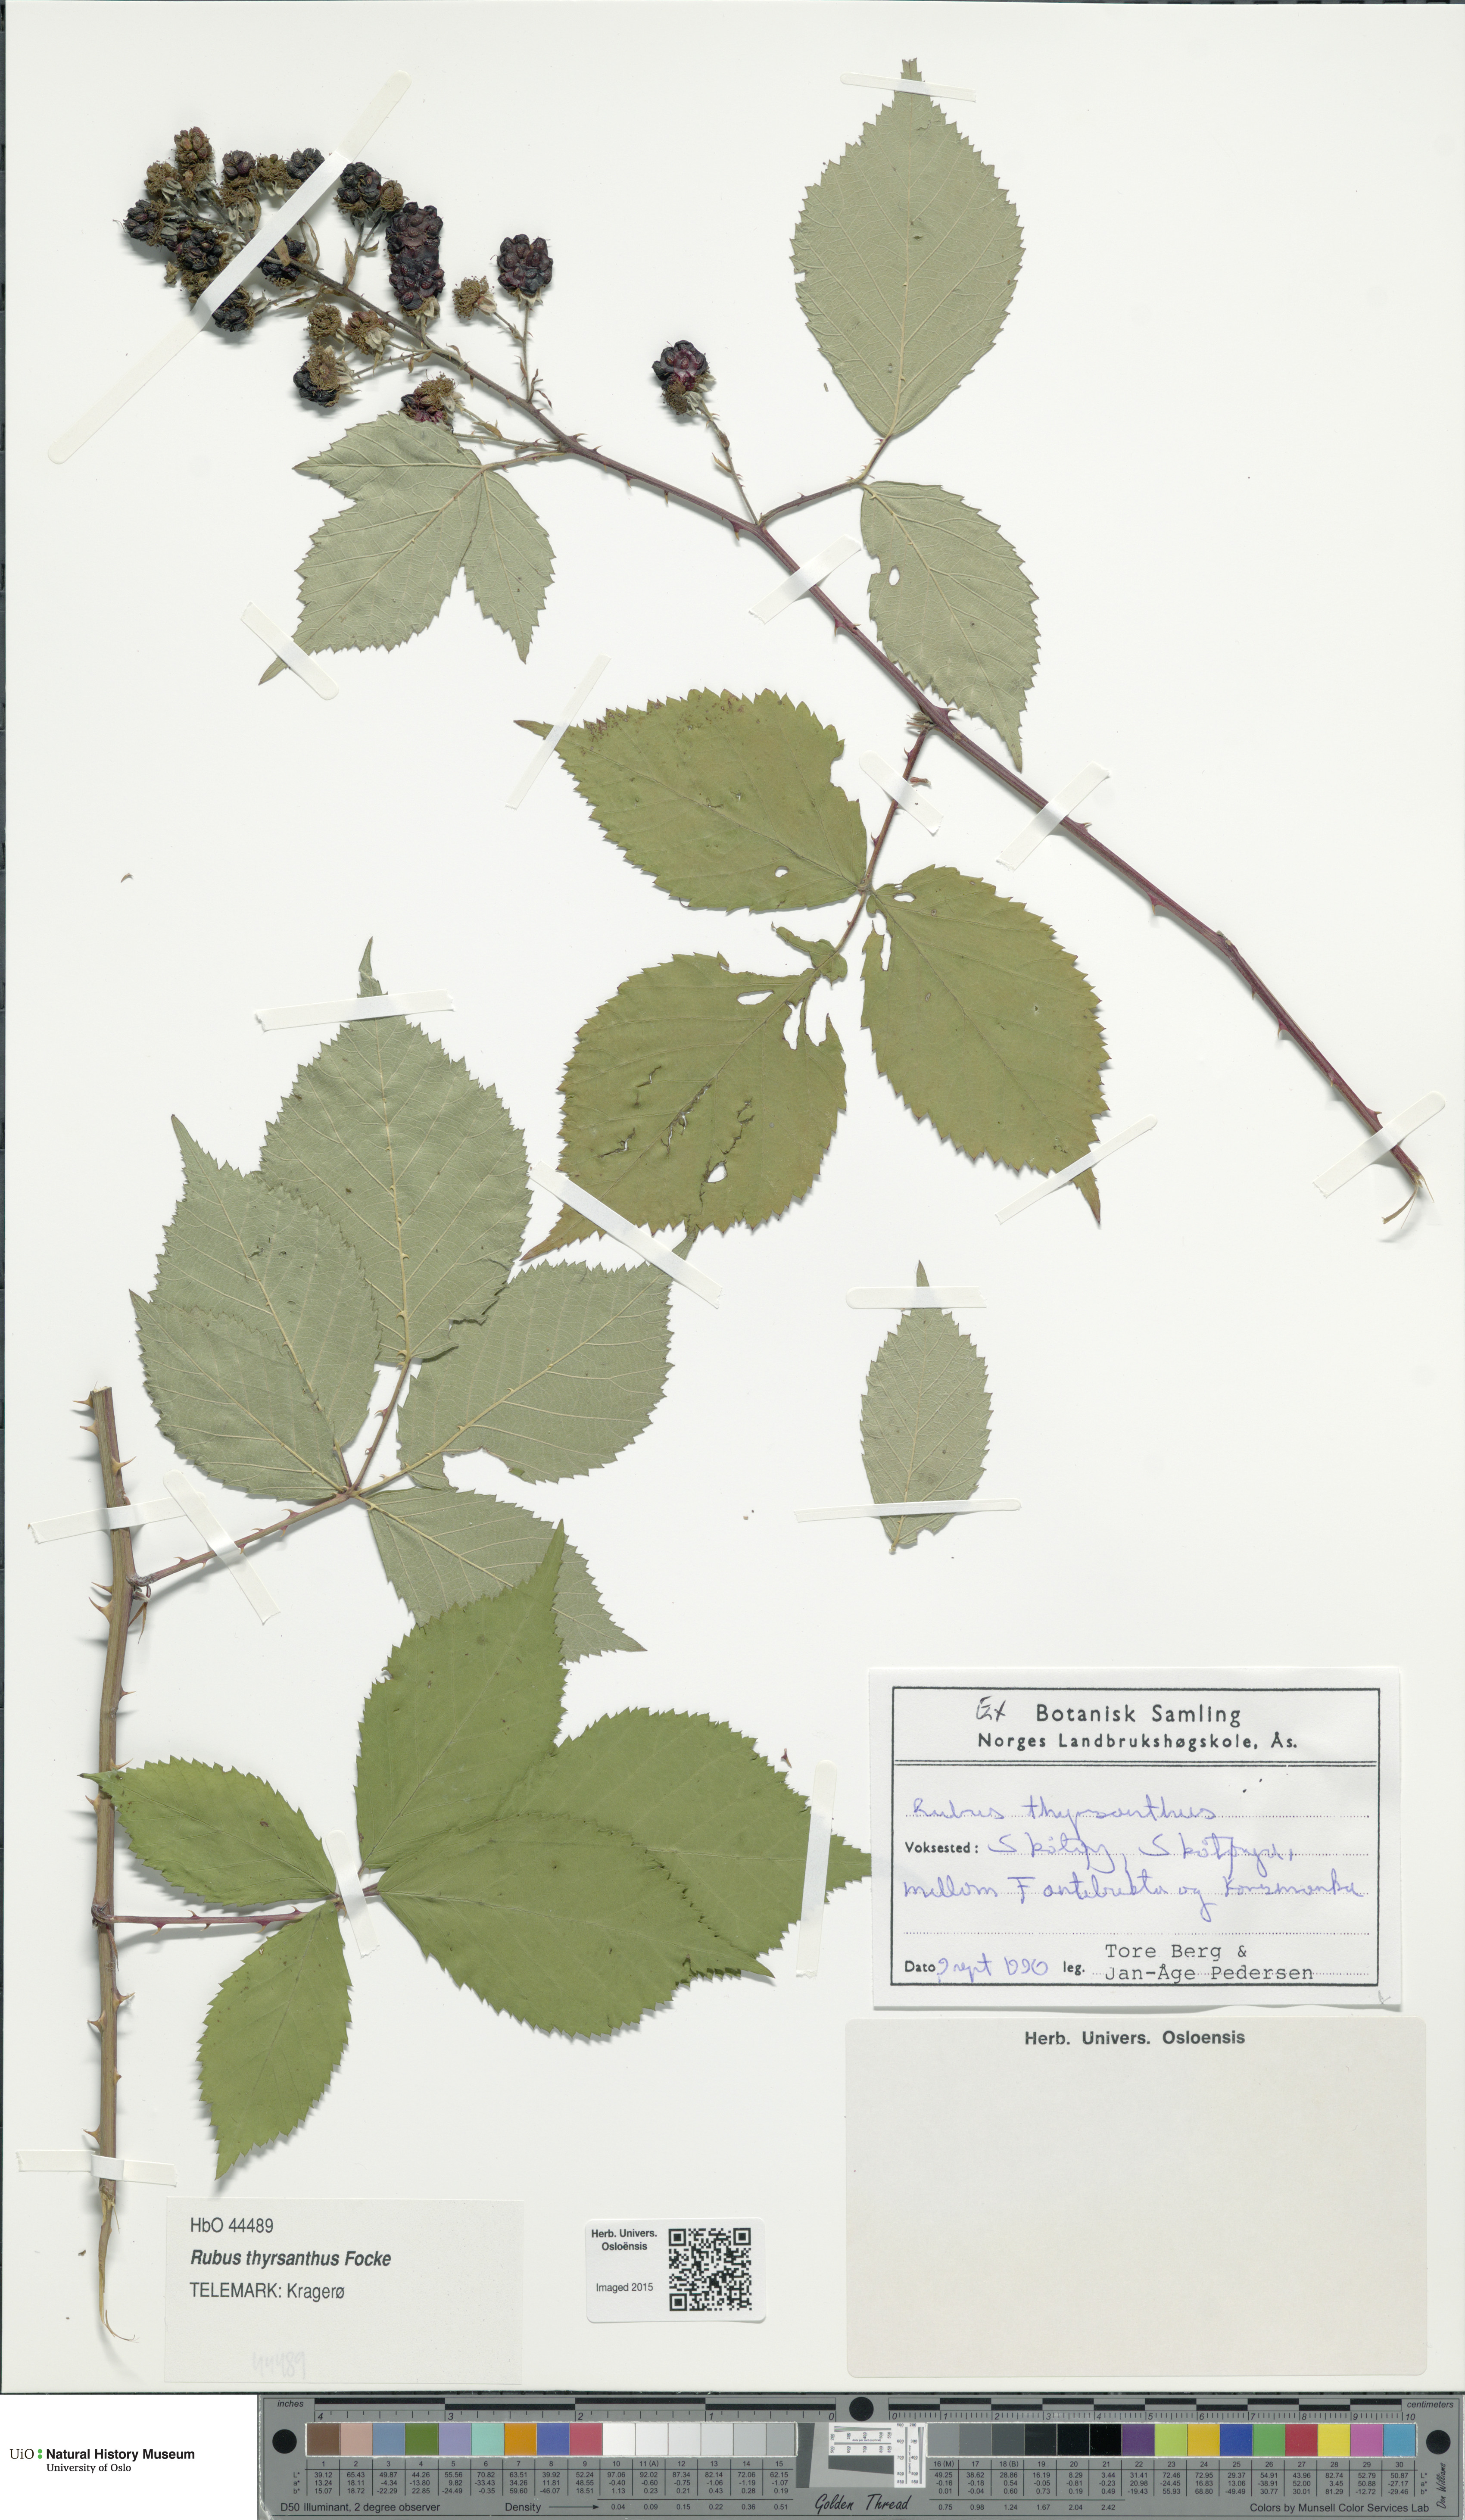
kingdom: Plantae
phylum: Tracheophyta
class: Magnoliopsida
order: Rosales
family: Rosaceae
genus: Rubus
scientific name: Rubus grabowskii
